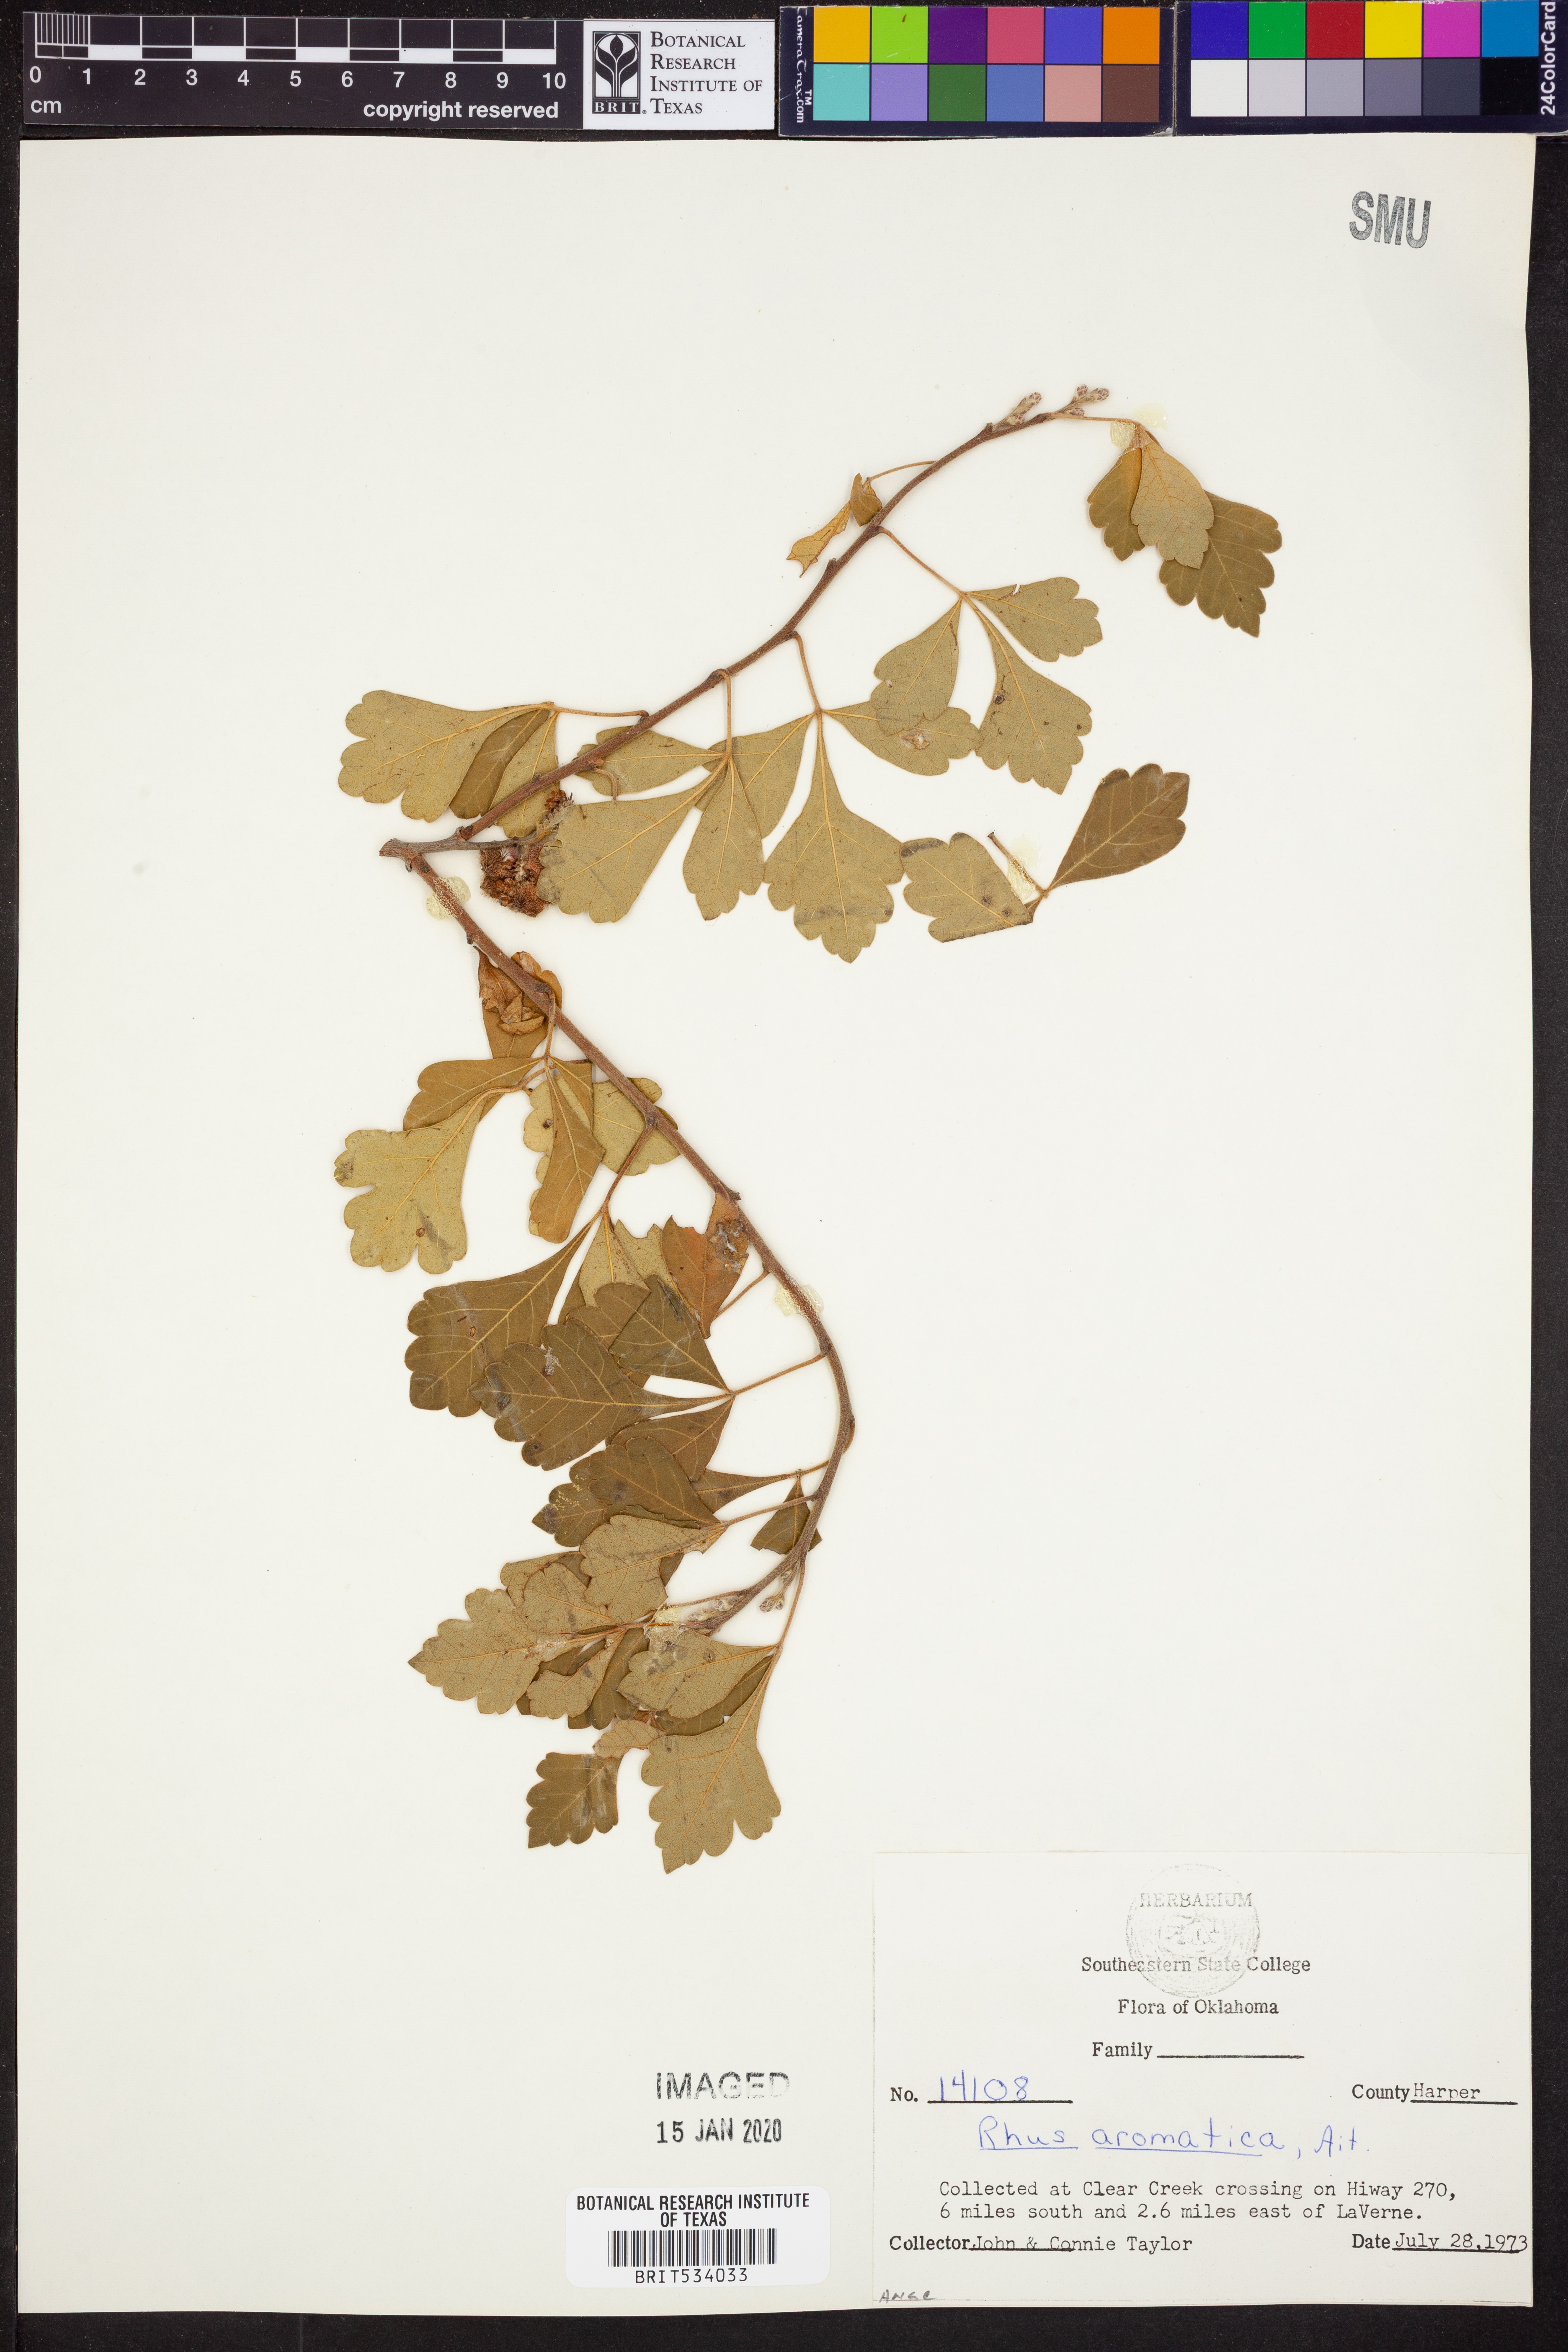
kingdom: Plantae
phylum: Tracheophyta
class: Magnoliopsida
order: Sapindales
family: Anacardiaceae
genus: Rhus
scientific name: Rhus aromatica
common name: Aromatic sumac
